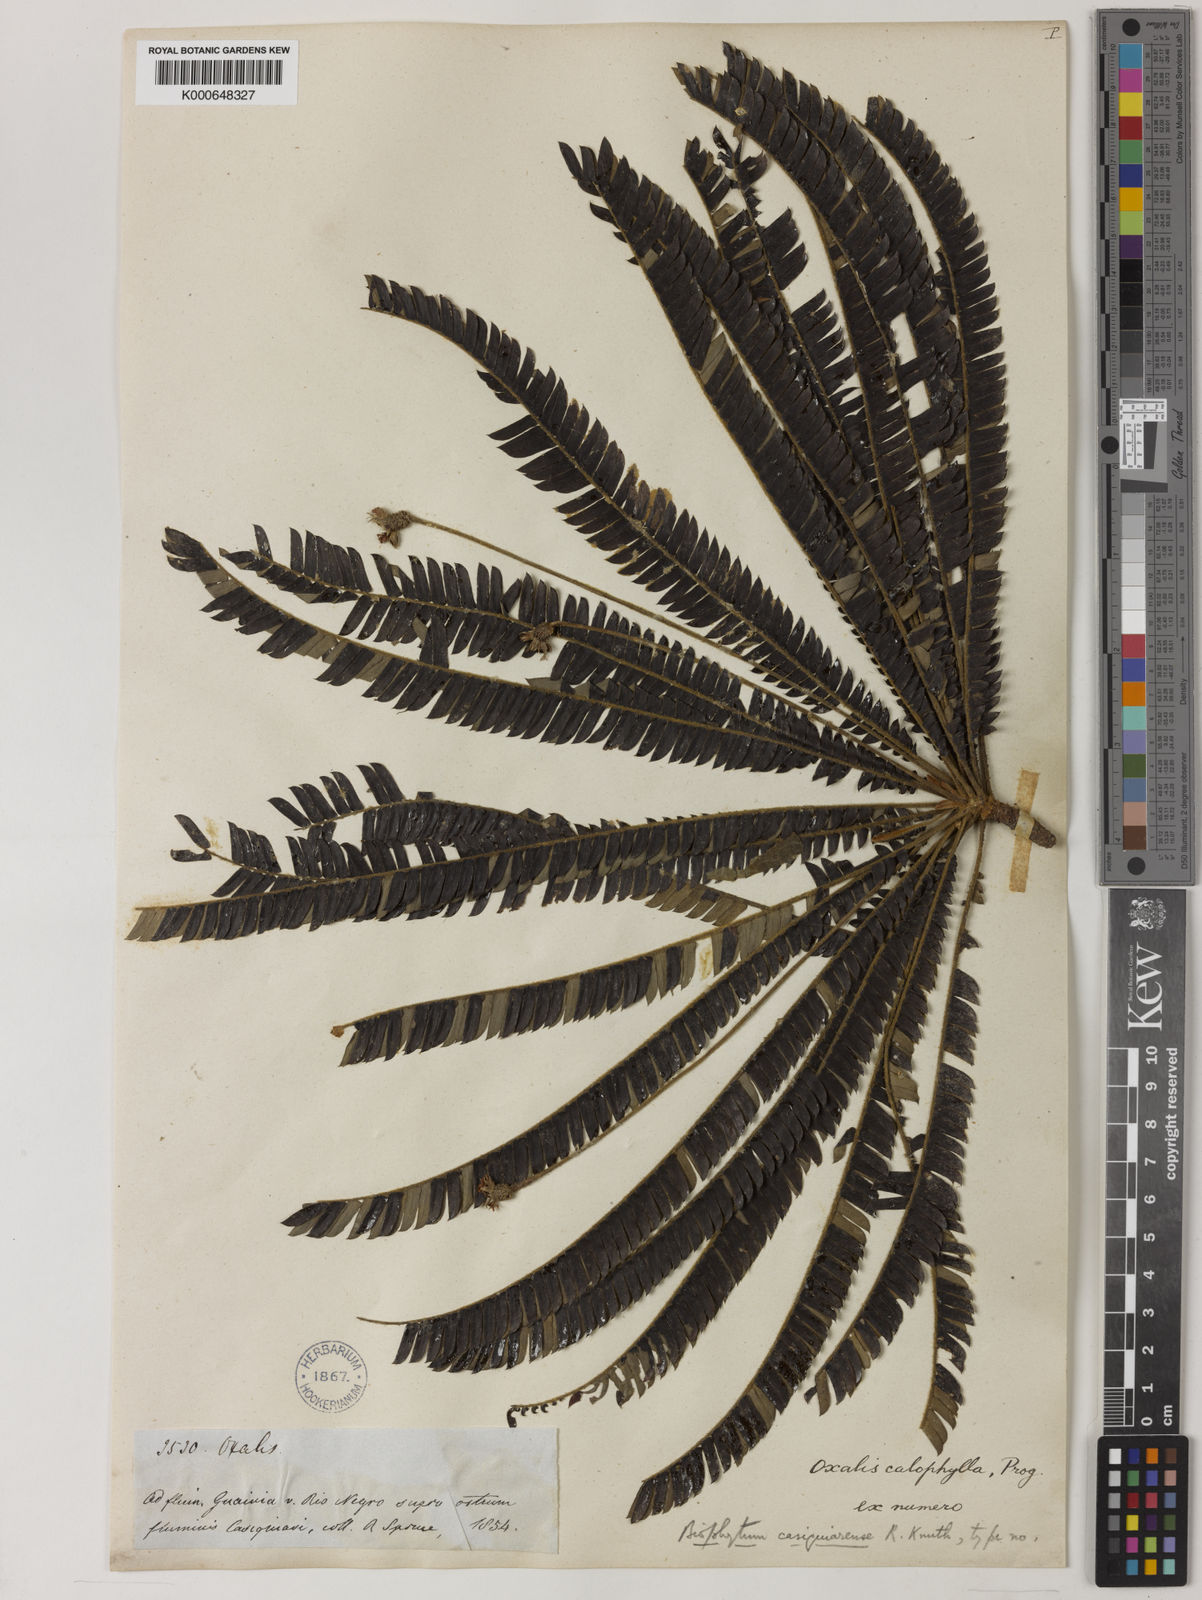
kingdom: Plantae
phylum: Tracheophyta
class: Magnoliopsida
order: Oxalidales
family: Oxalidaceae
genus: Biophytum
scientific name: Biophytum calophyllum
